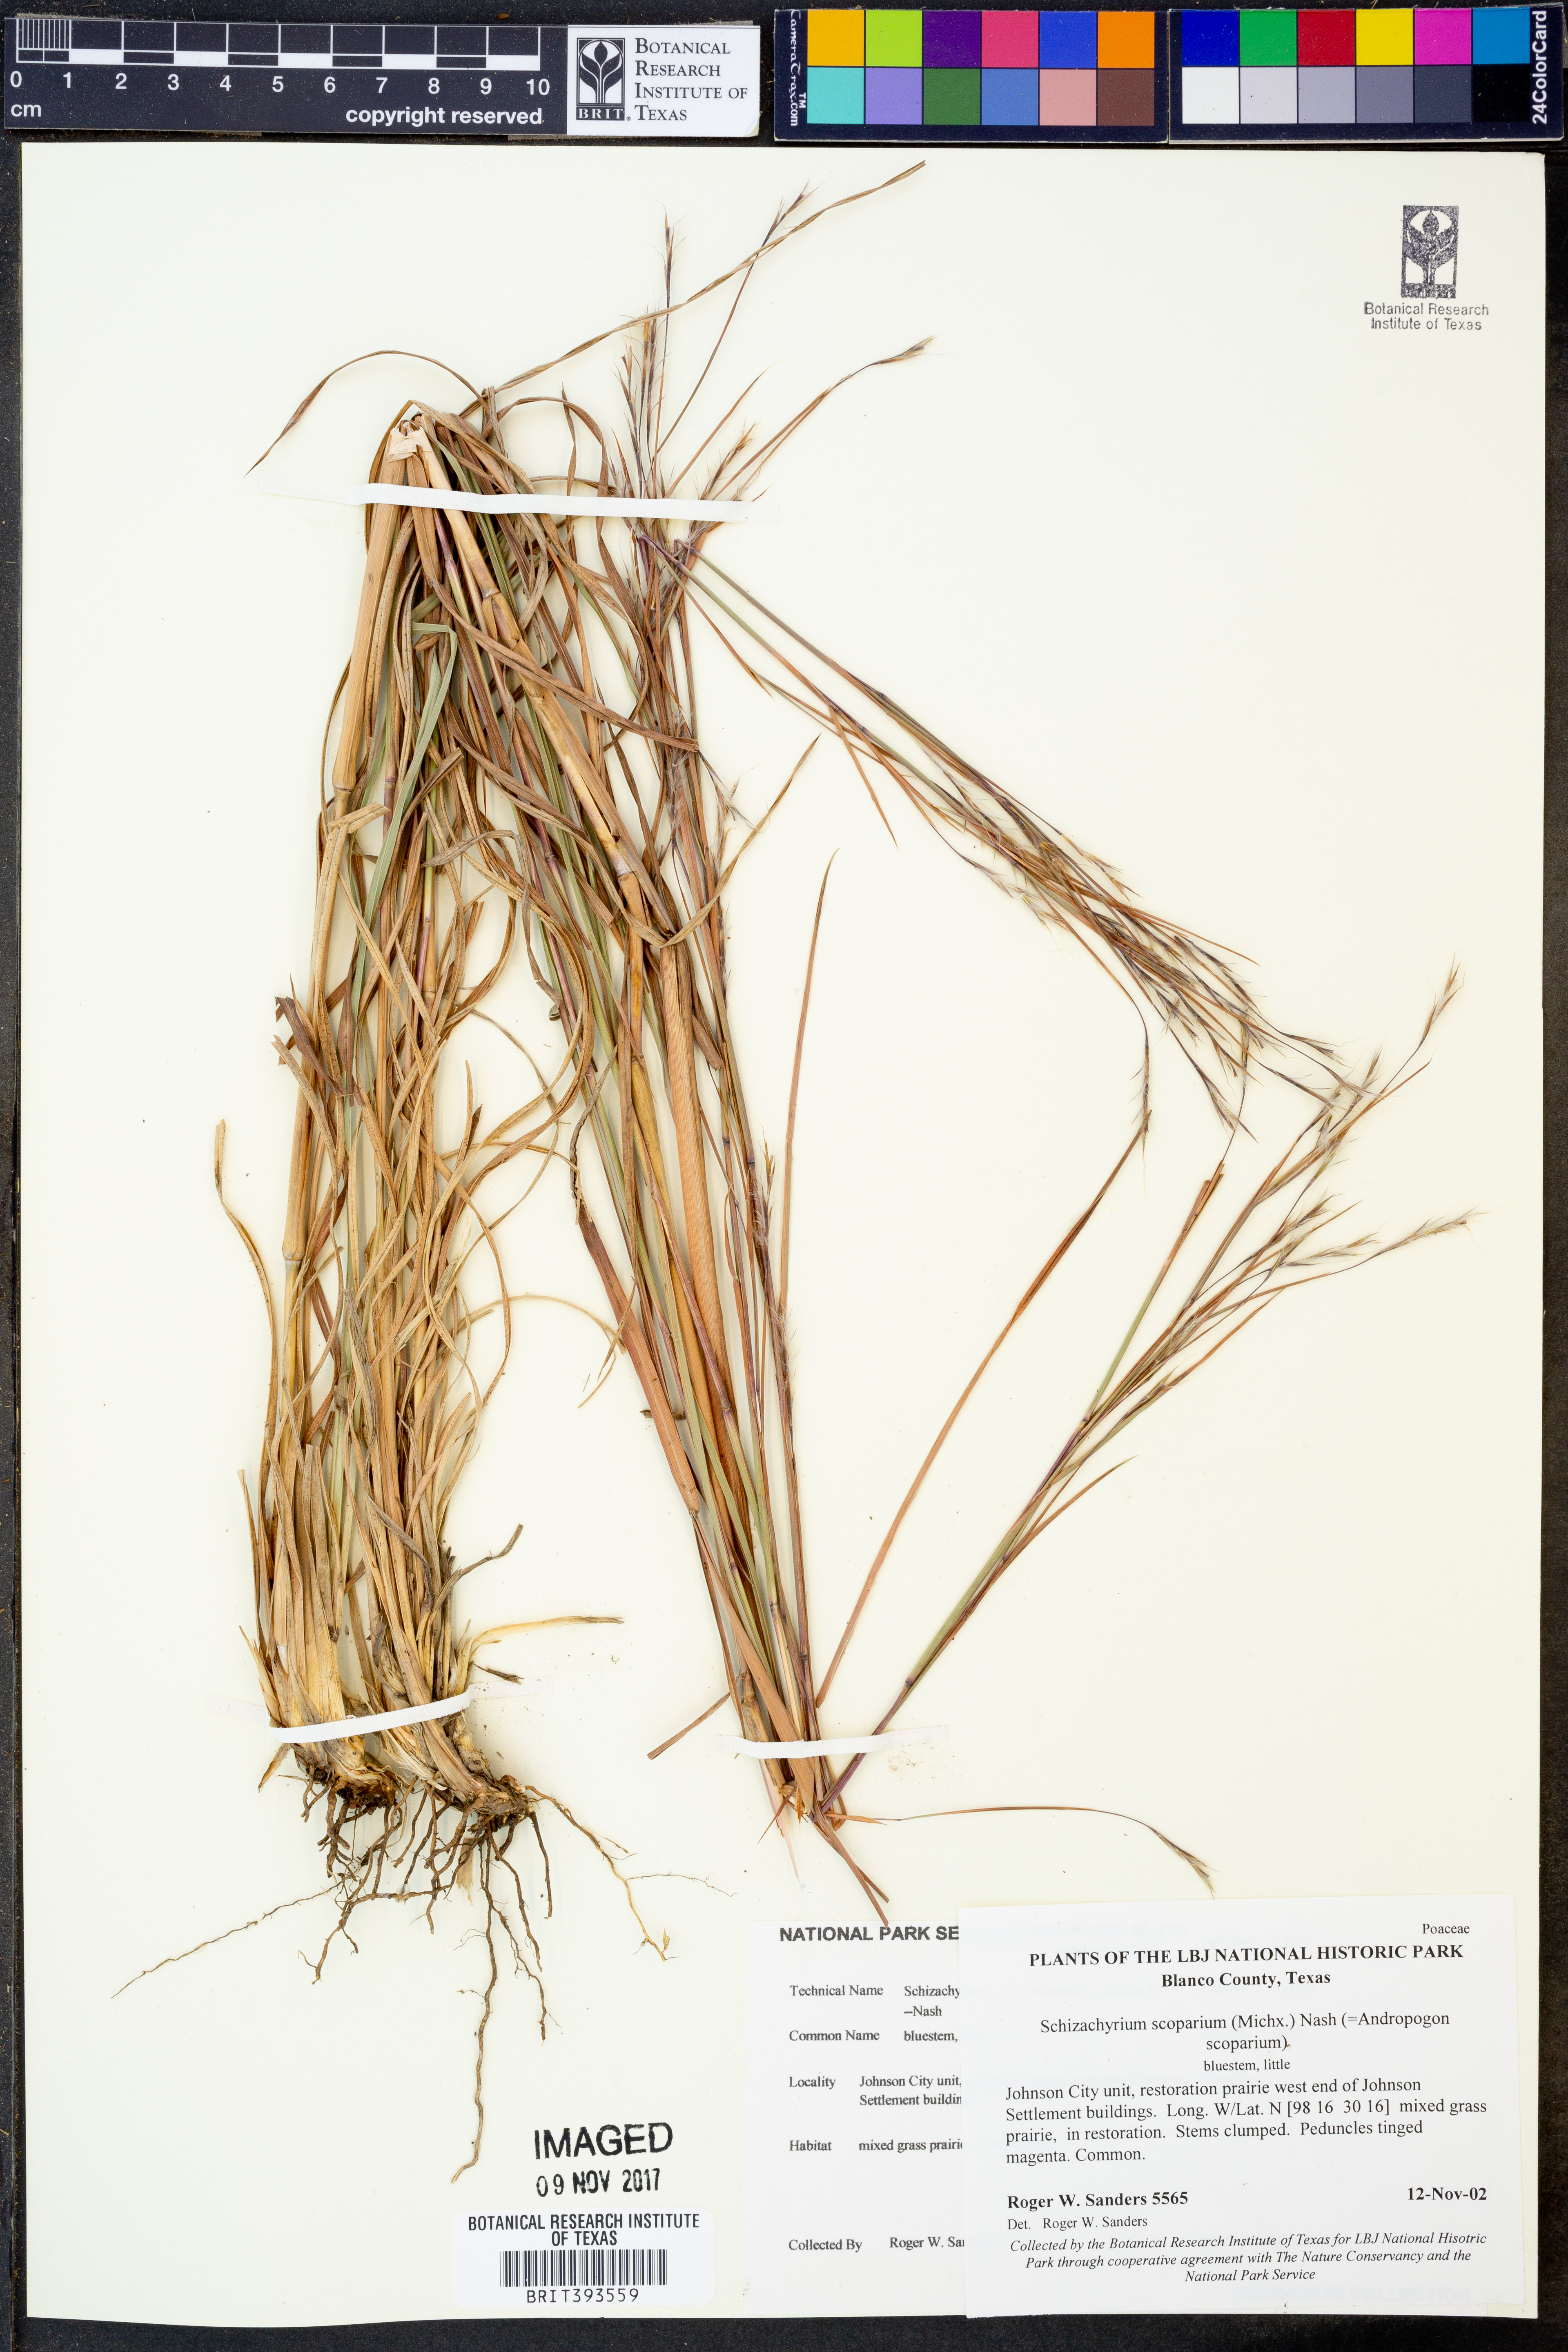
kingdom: Plantae
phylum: Tracheophyta
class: Liliopsida
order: Poales
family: Poaceae
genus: Schizachyrium
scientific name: Schizachyrium scoparium
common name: Little bluestem
